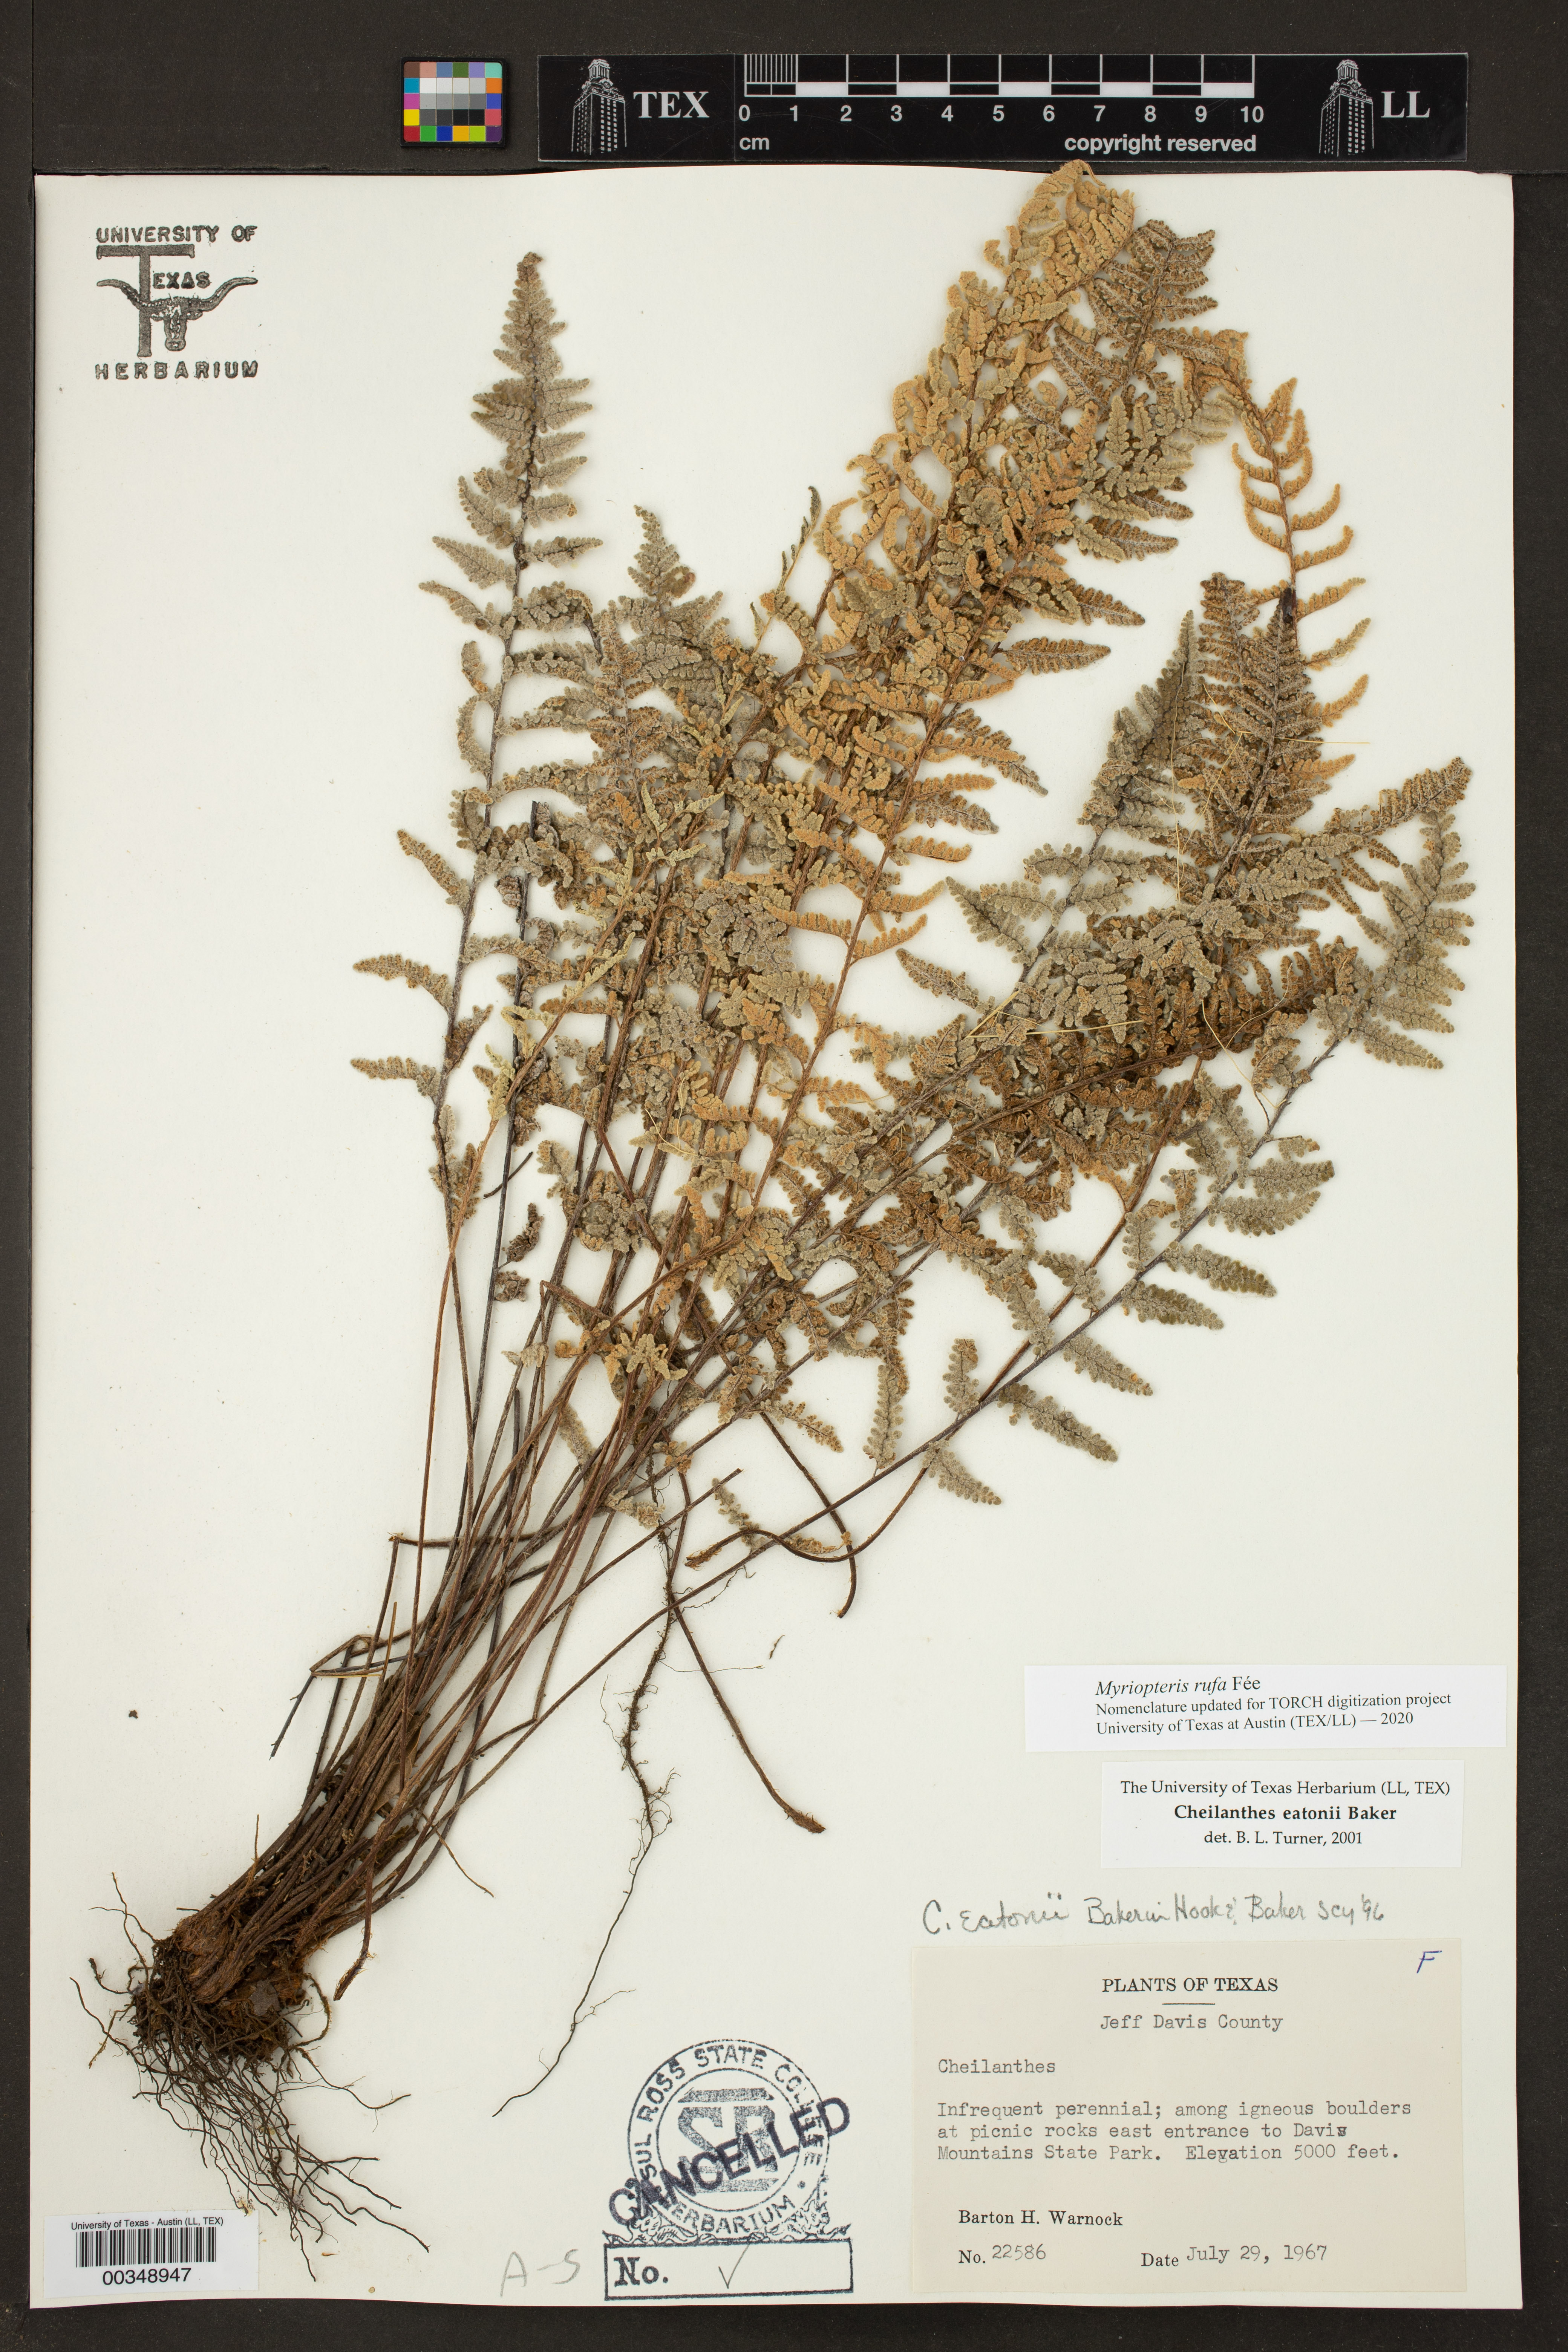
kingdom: Plantae
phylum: Tracheophyta
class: Polypodiopsida
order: Polypodiales
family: Pteridaceae
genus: Myriopteris
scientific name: Myriopteris rufa
